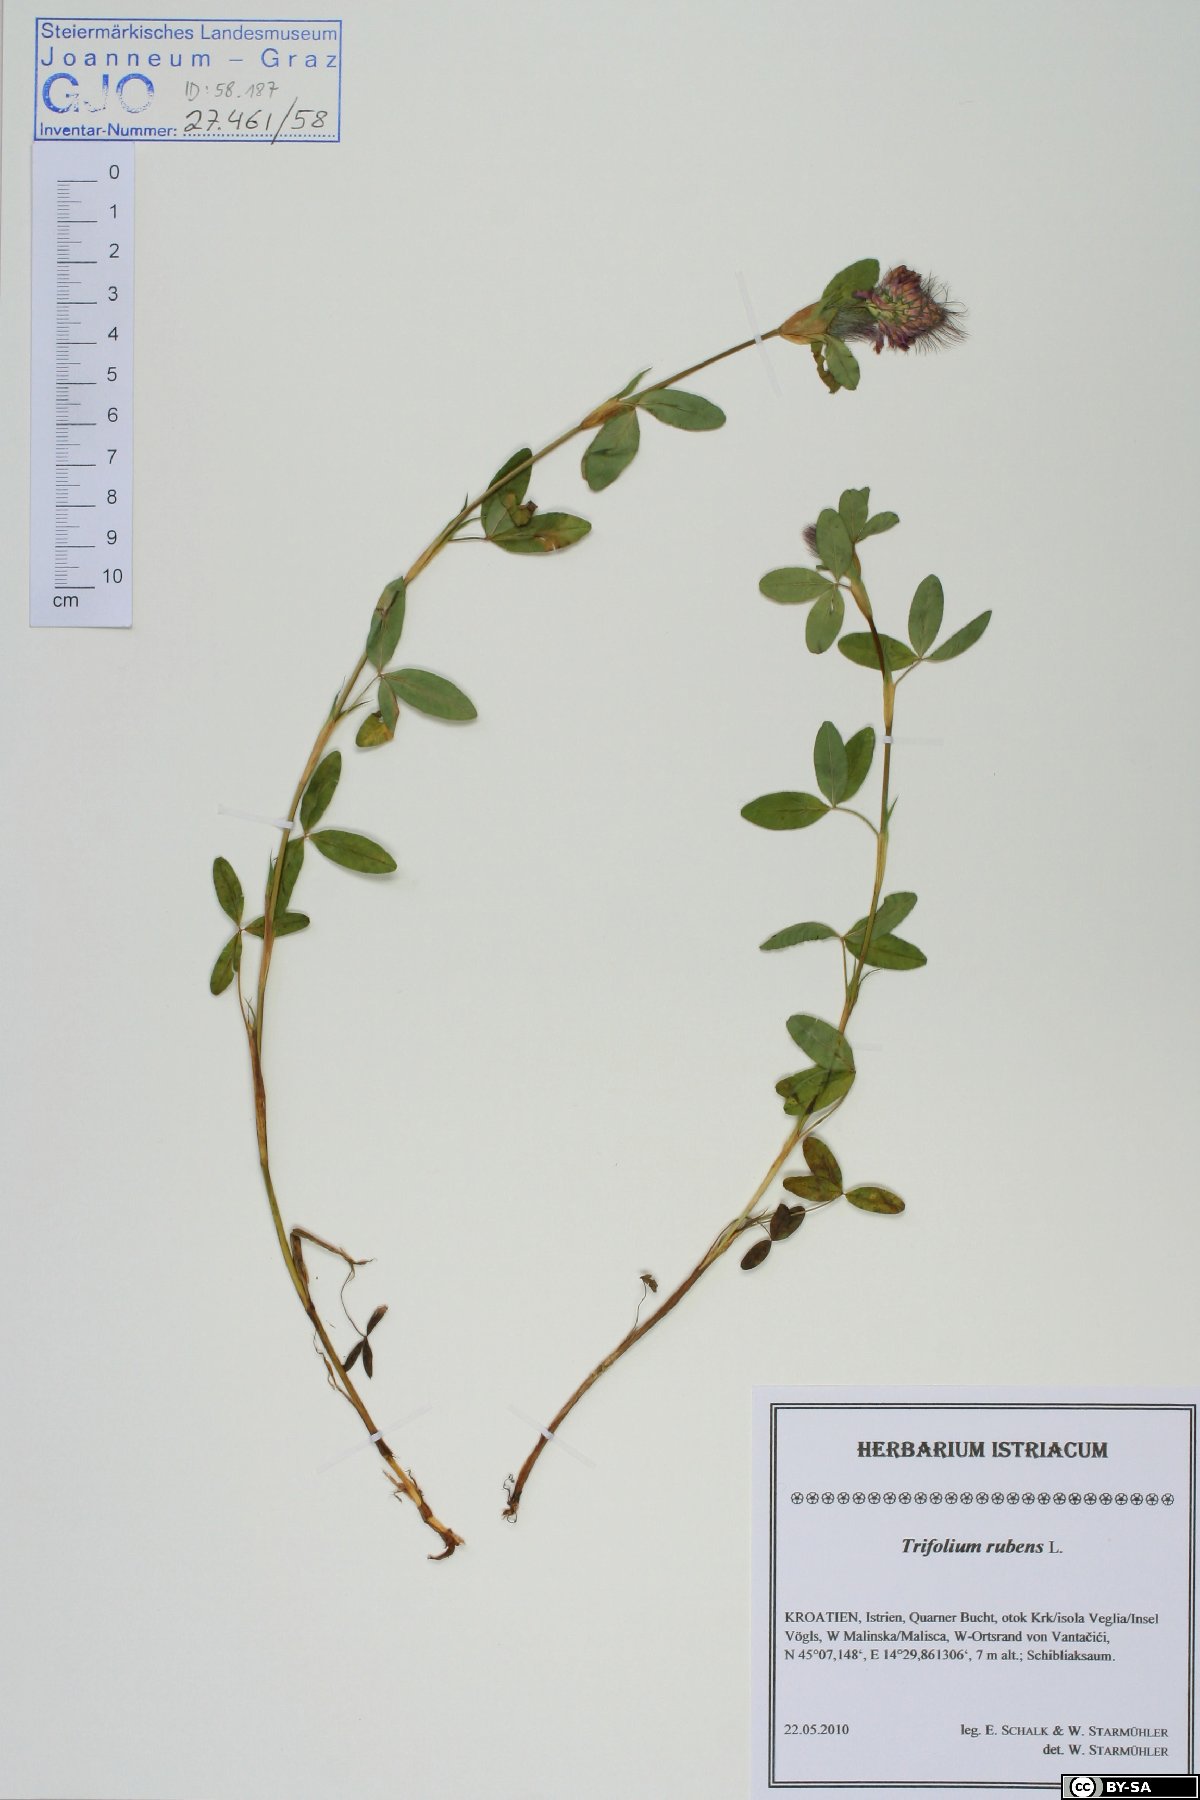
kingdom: Plantae
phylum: Tracheophyta
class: Magnoliopsida
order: Fabales
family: Fabaceae
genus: Trifolium
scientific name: Trifolium rubens
